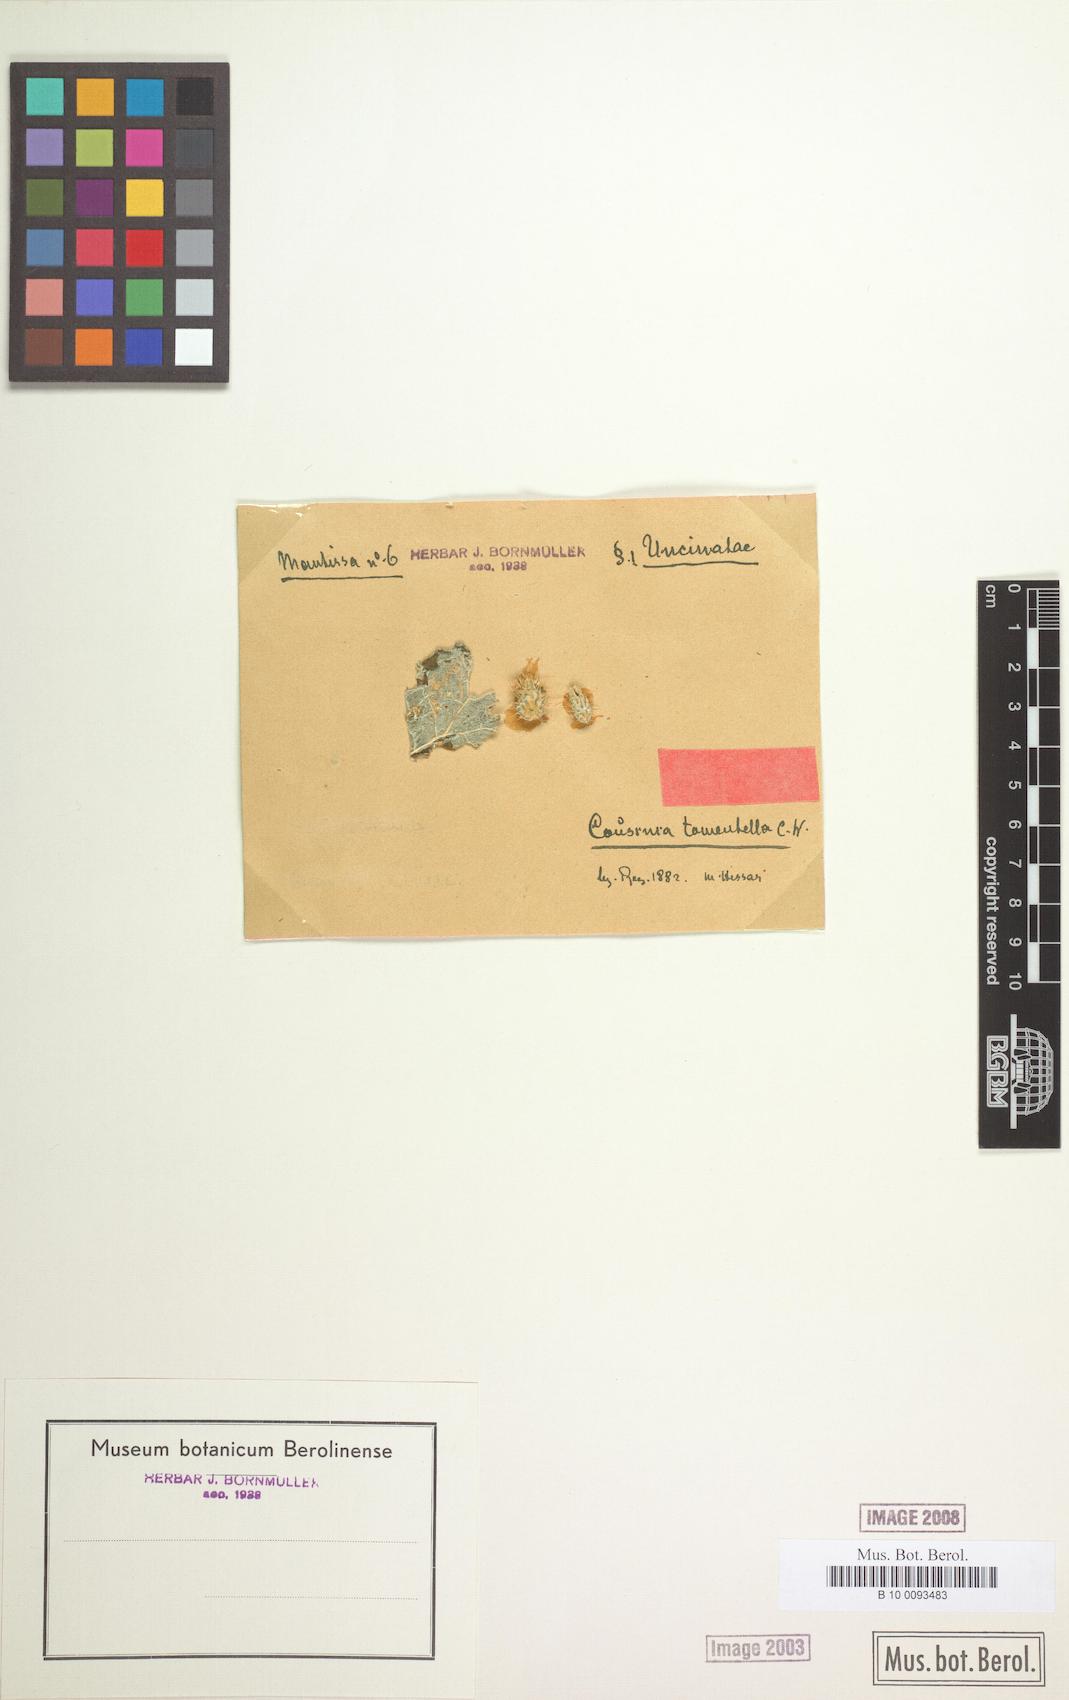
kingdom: Plantae
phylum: Tracheophyta
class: Magnoliopsida
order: Asterales
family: Asteraceae
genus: Arctium
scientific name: Arctium tomentellum
